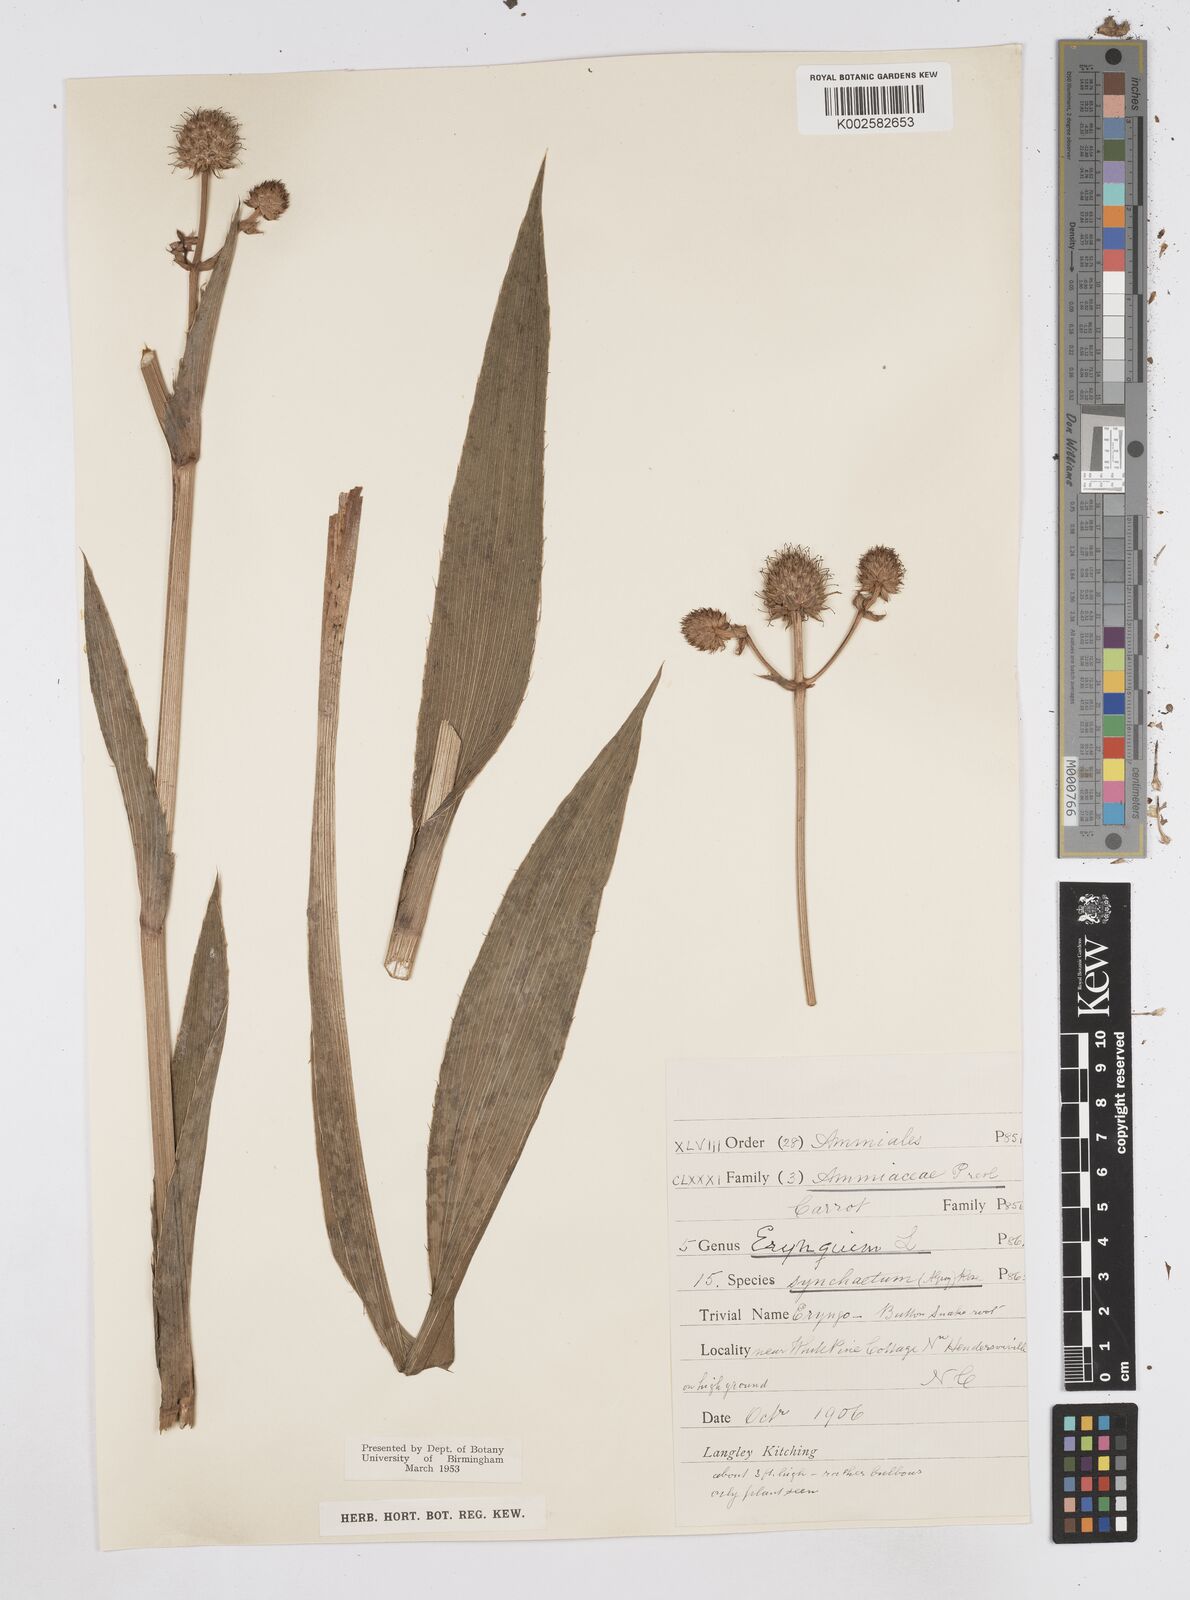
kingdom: Plantae
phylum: Tracheophyta
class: Magnoliopsida
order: Apiales
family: Apiaceae
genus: Eryngium
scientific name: Eryngium yuccifolium
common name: Button eryngo
